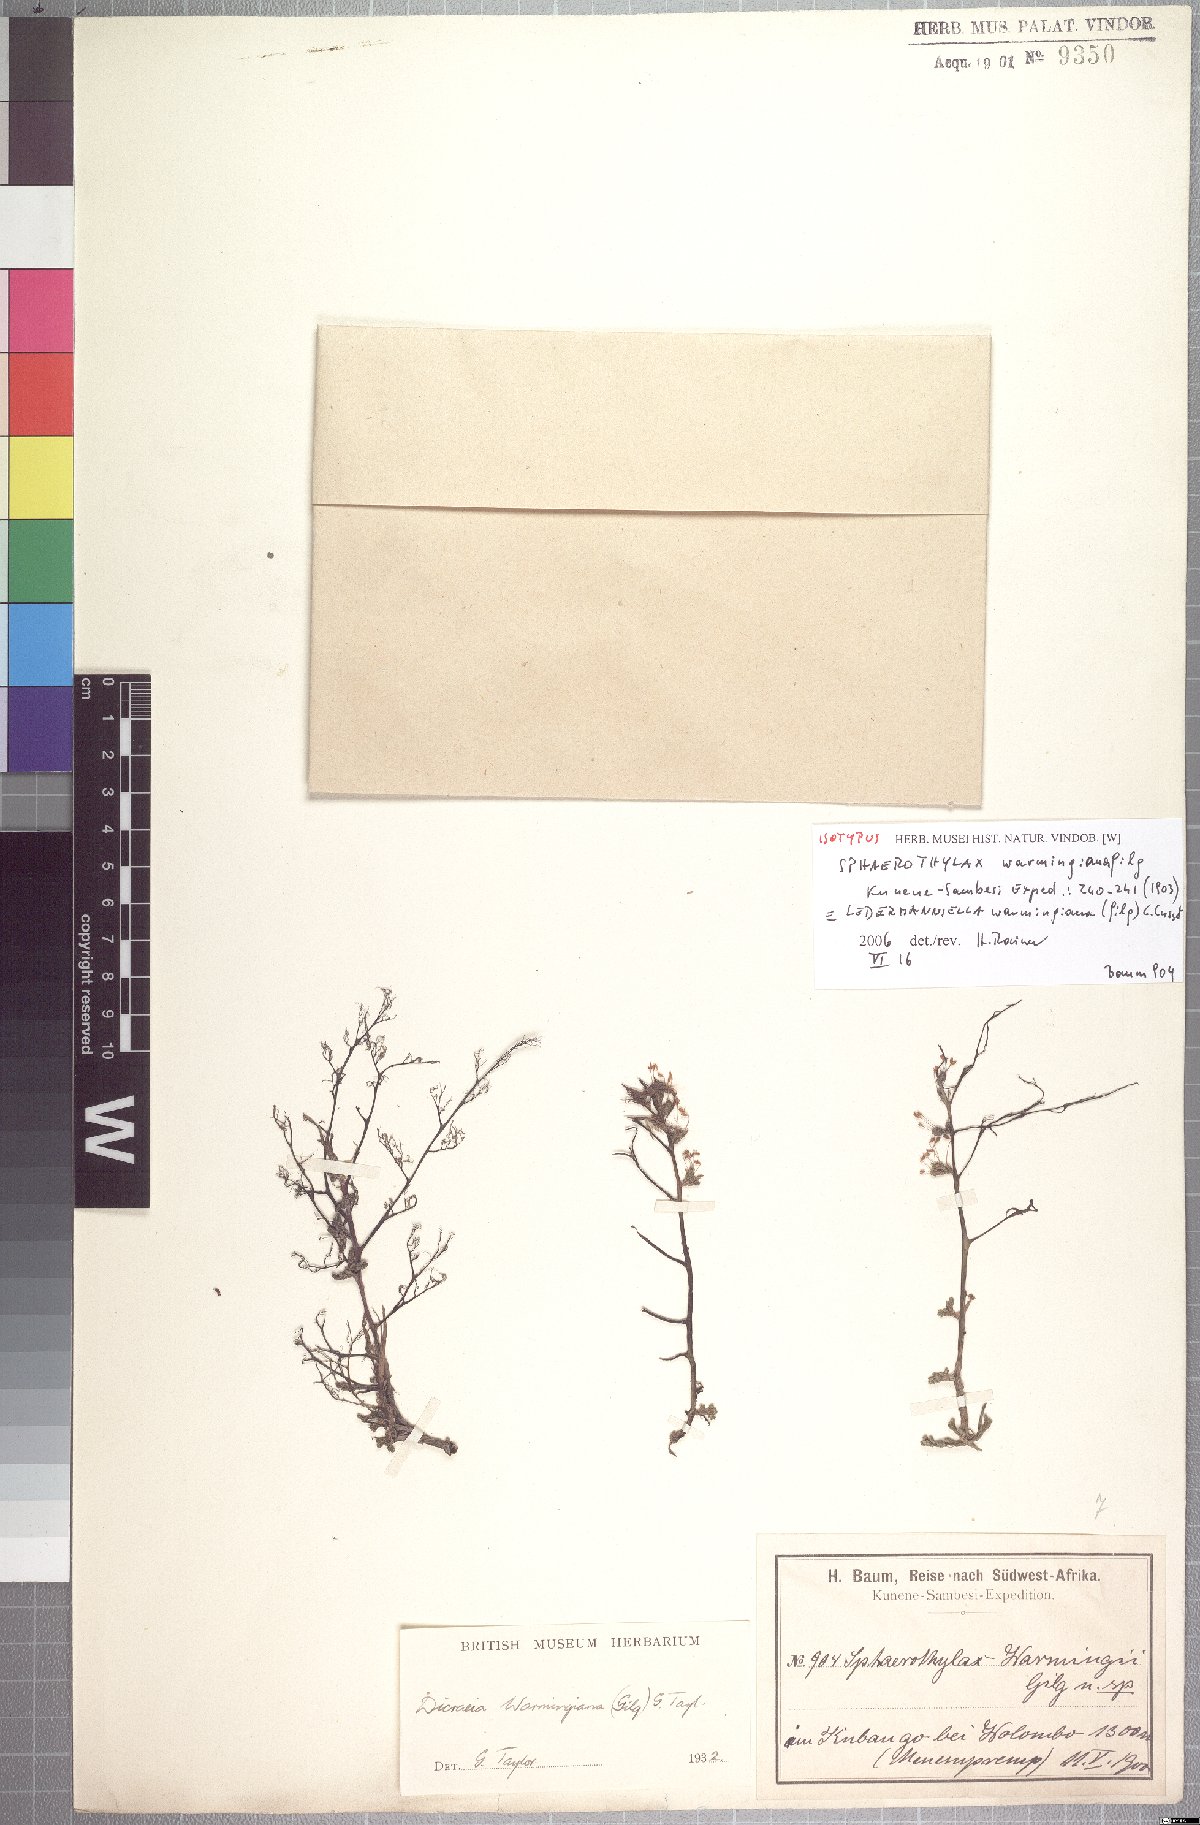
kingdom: Plantae
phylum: Tracheophyta
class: Magnoliopsida
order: Malpighiales
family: Podostemaceae
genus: Inversodicraea
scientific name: Inversodicraea warmingiana
